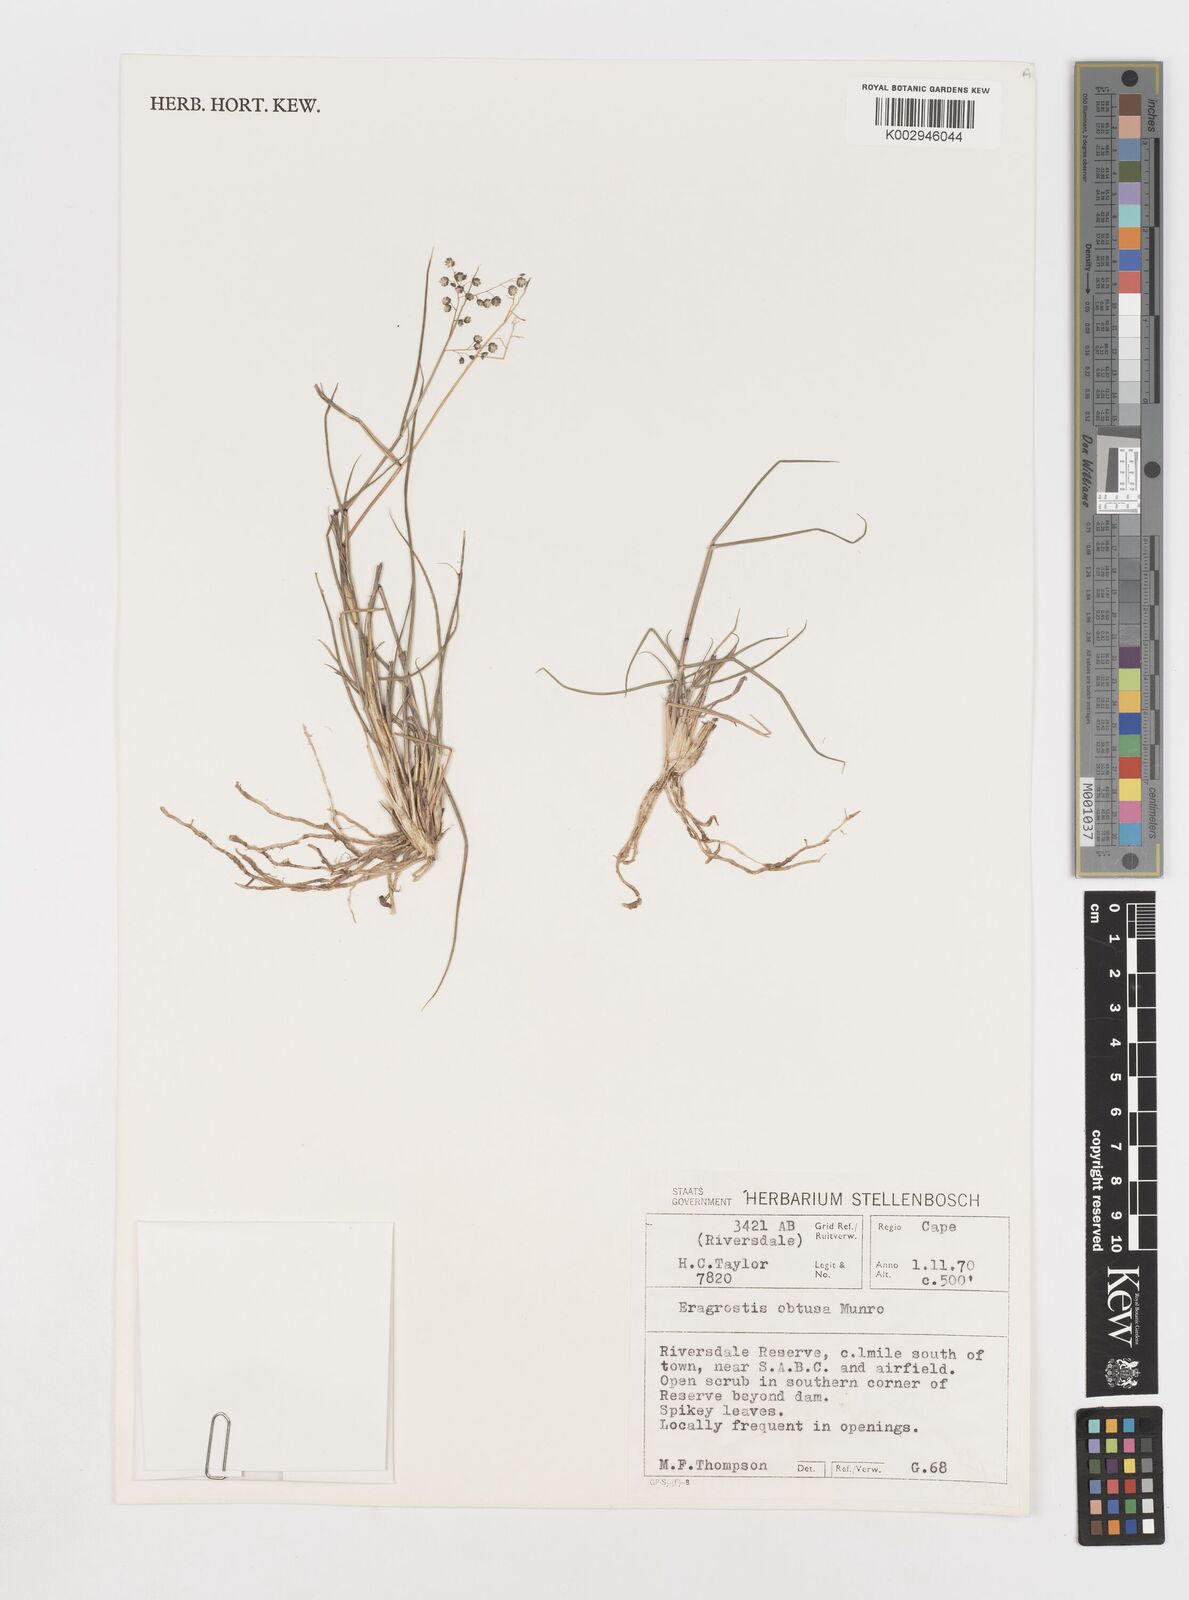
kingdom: Plantae
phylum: Tracheophyta
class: Liliopsida
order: Poales
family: Poaceae
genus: Eragrostis
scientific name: Eragrostis obtusa
